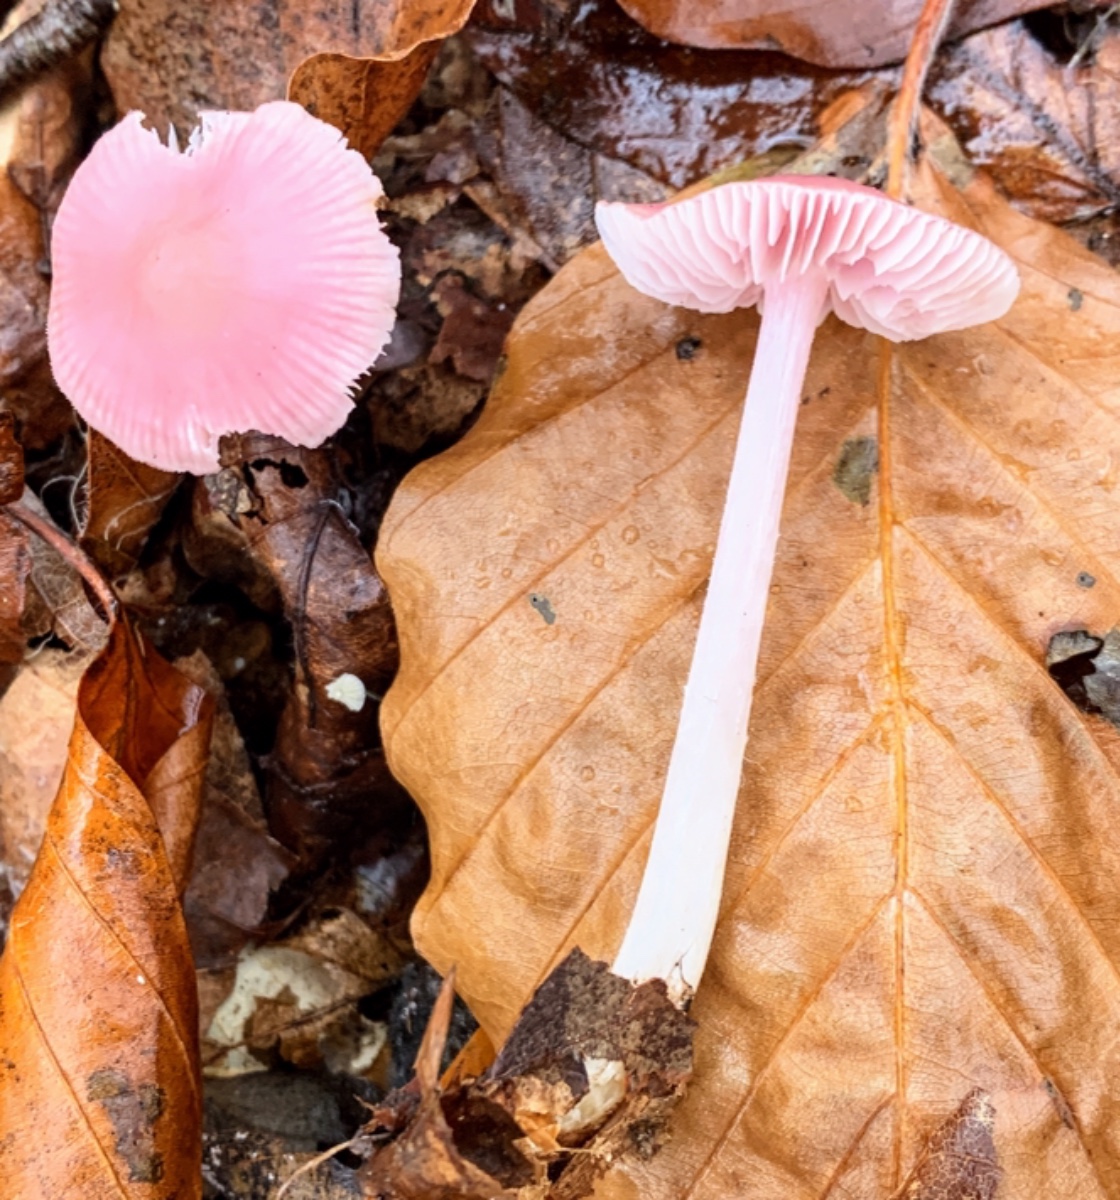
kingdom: Fungi
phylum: Basidiomycota
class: Agaricomycetes
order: Agaricales
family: Mycenaceae
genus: Mycena
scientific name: Mycena rosea
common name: rosa huesvamp
